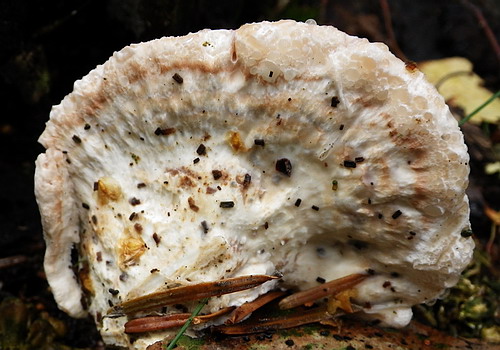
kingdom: Fungi
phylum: Basidiomycota
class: Agaricomycetes
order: Polyporales
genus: Calcipostia
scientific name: Calcipostia guttulata
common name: dråbe-kødporesvamp
